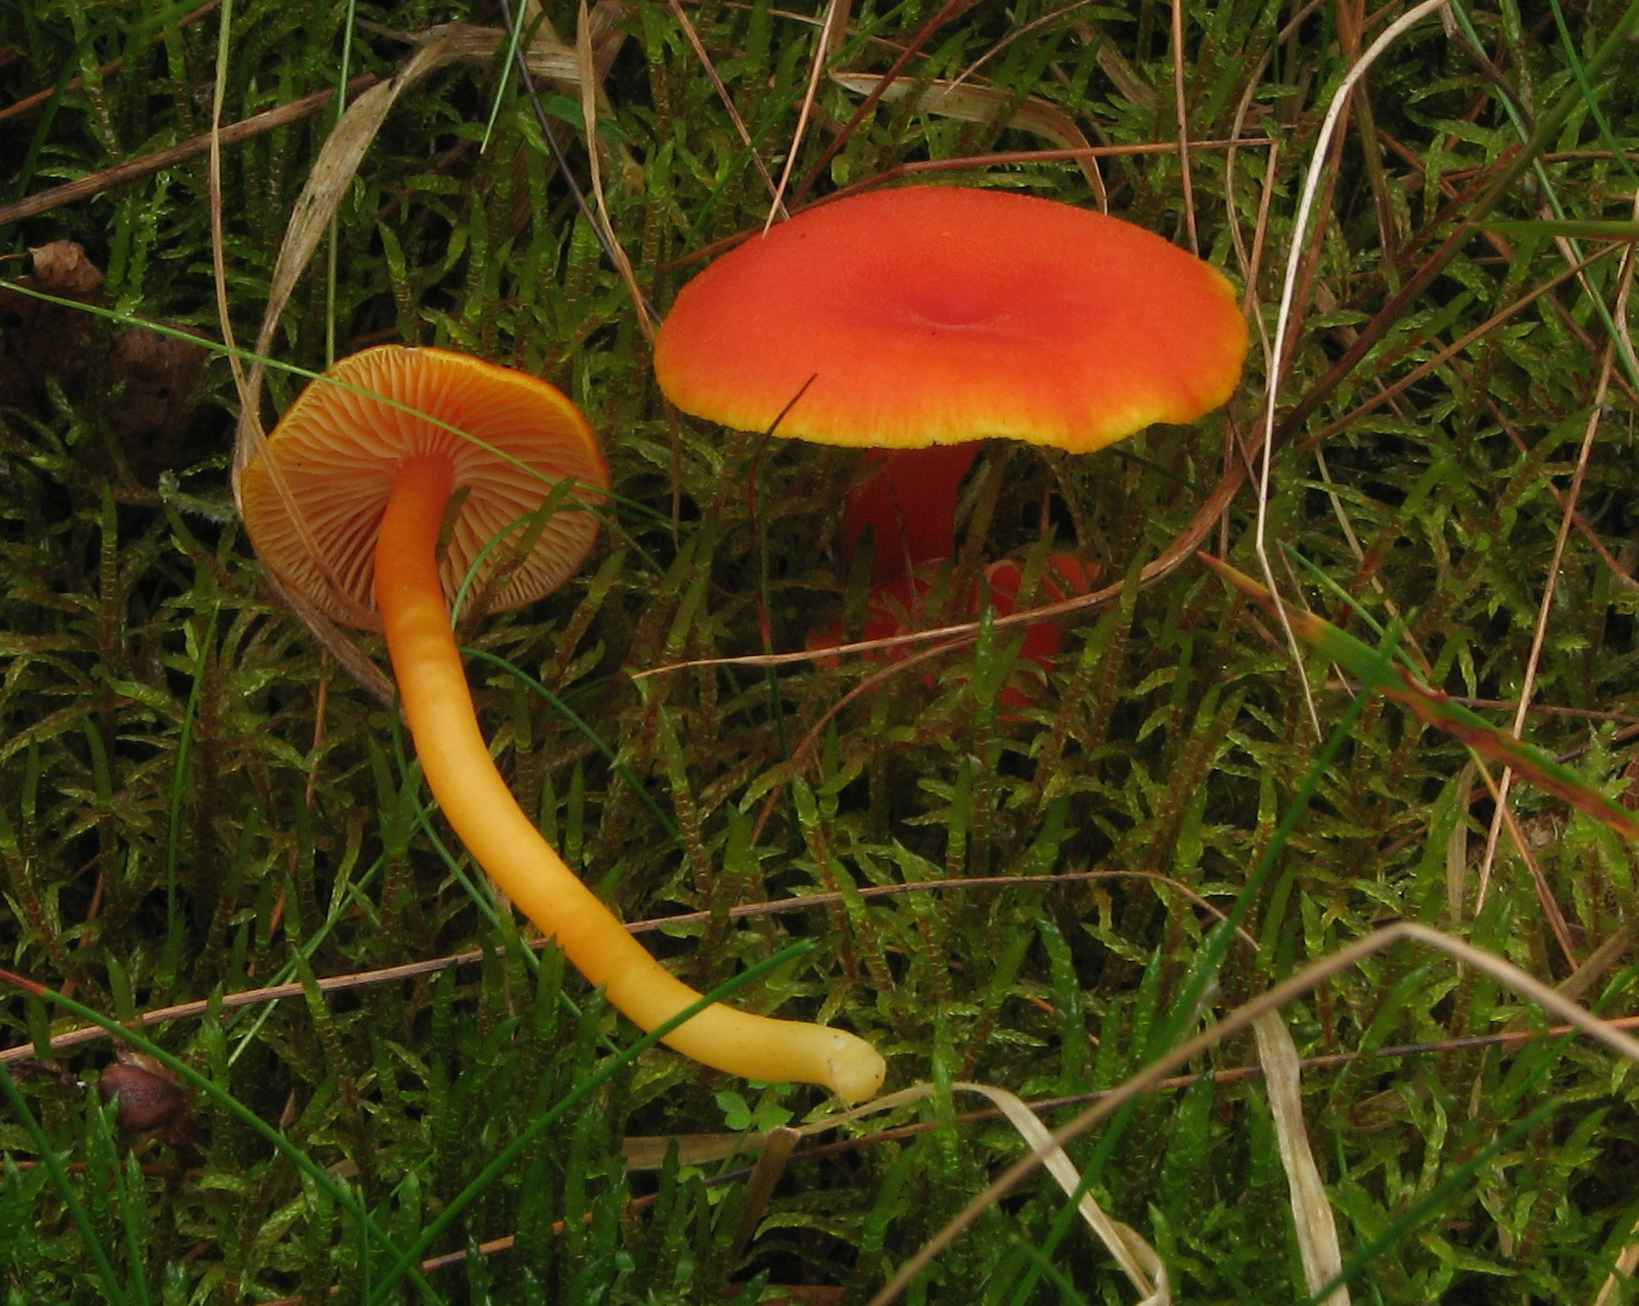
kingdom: Fungi
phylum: Basidiomycota
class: Agaricomycetes
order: Agaricales
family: Hygrophoraceae
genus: Hygrocybe
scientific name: Hygrocybe miniata
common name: mønje-vokshat
